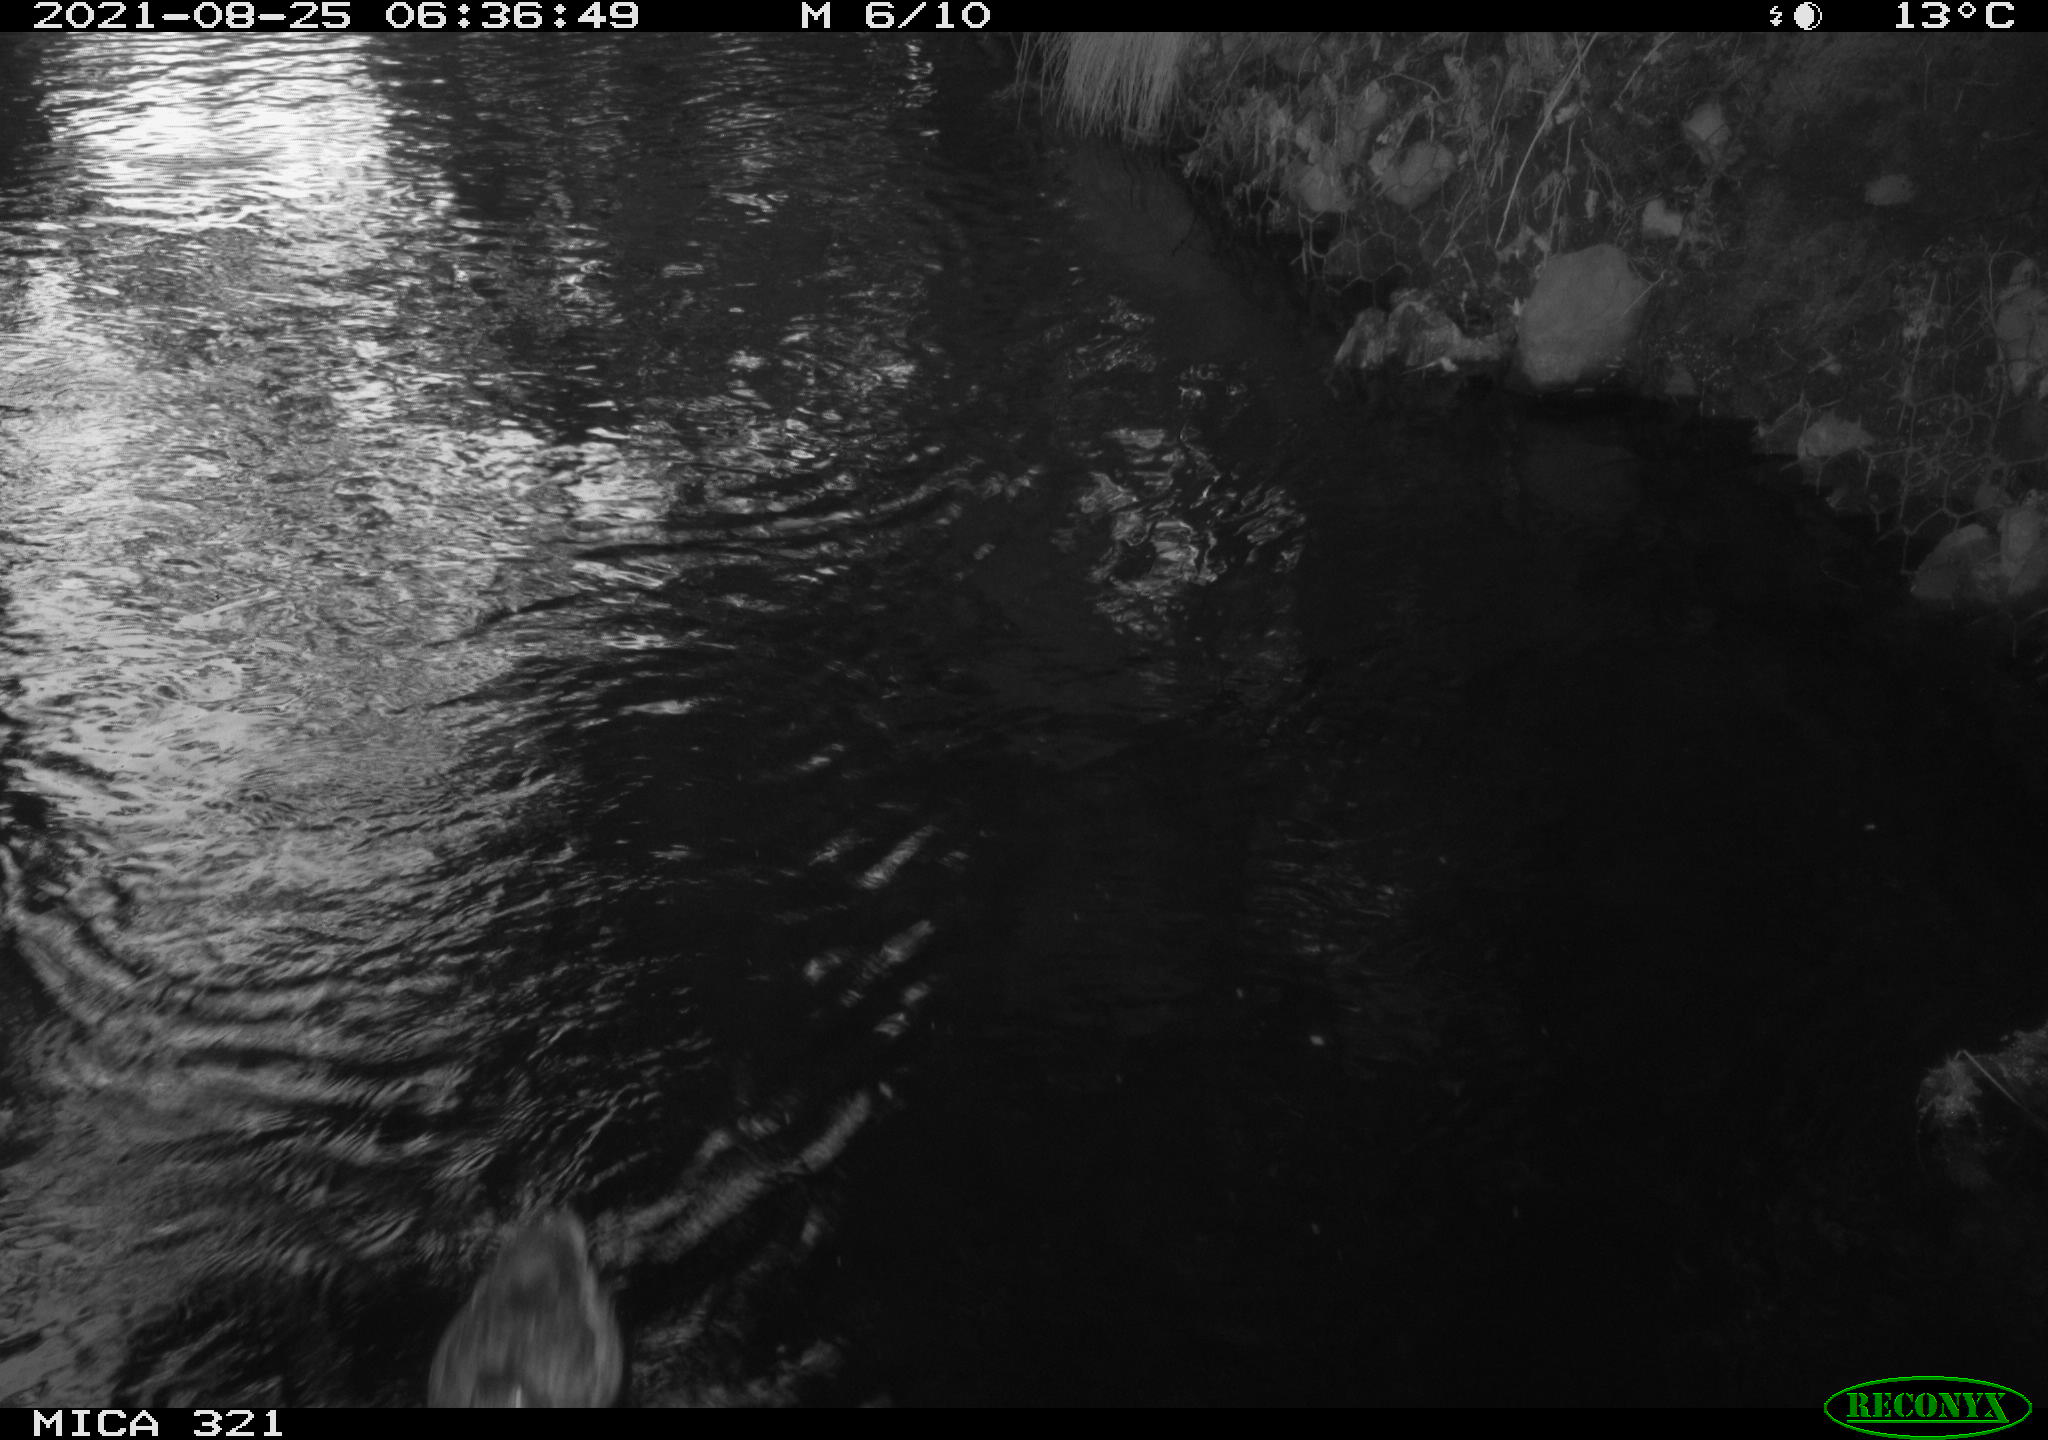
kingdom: Animalia
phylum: Chordata
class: Aves
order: Anseriformes
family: Anatidae
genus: Anas
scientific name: Anas platyrhynchos
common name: Mallard
